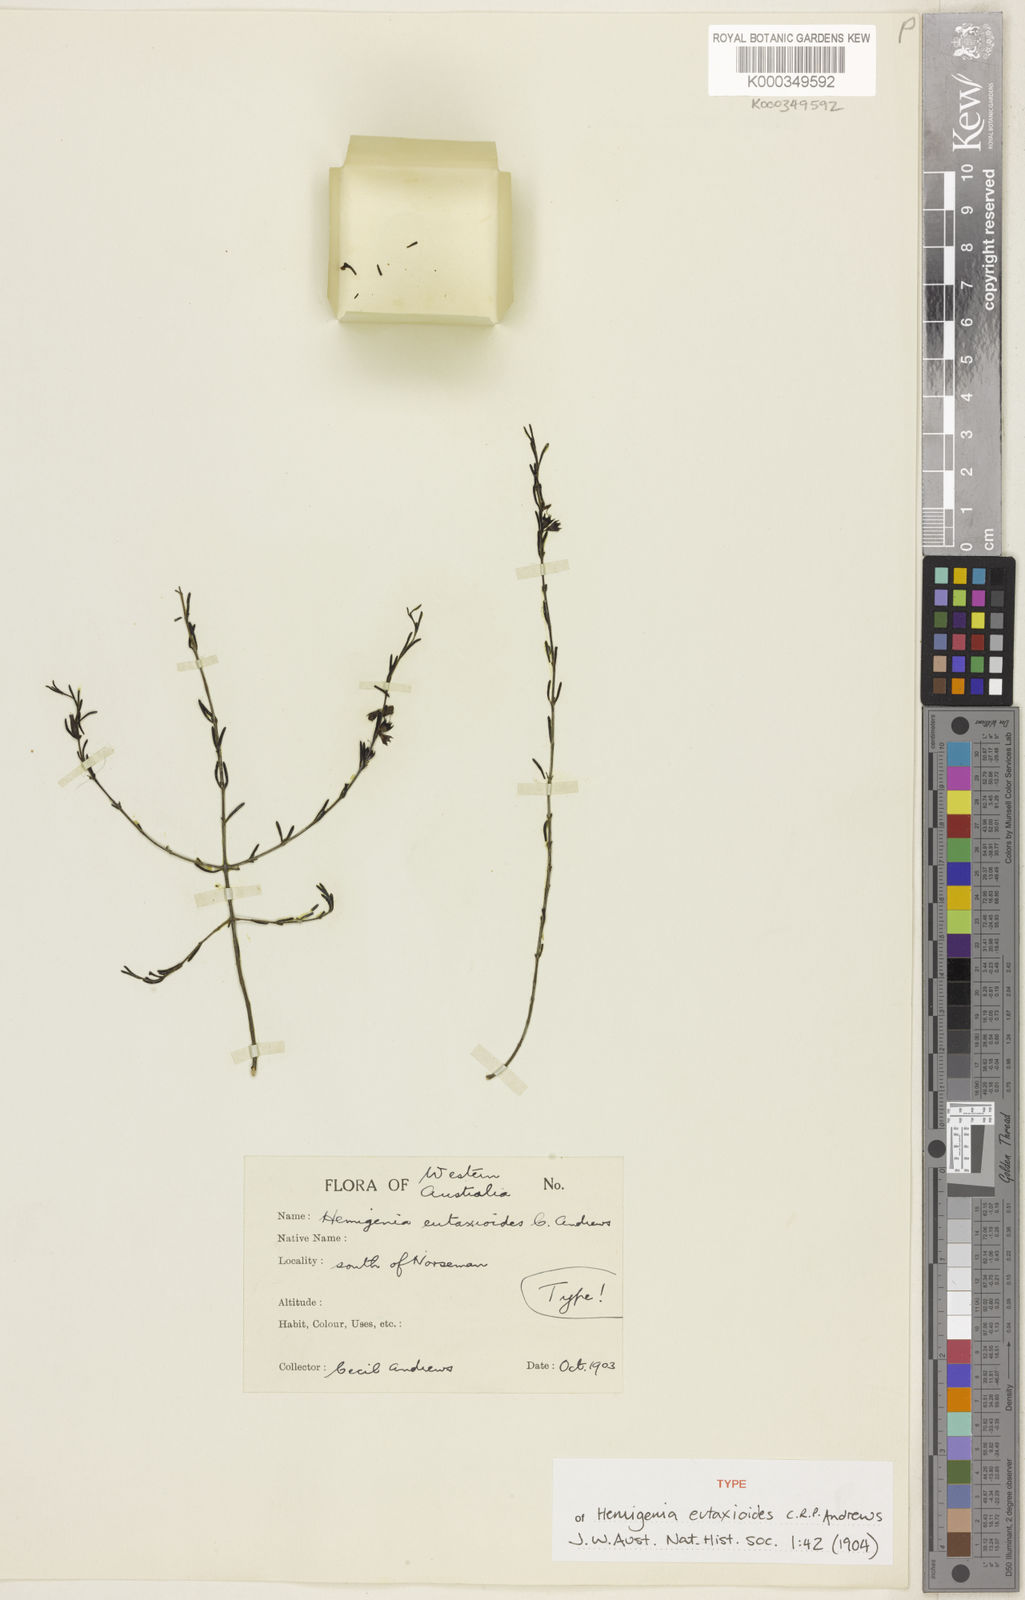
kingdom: Plantae
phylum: Tracheophyta
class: Magnoliopsida
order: Lamiales
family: Lamiaceae
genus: Hemigenia
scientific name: Hemigenia teretiuscula
